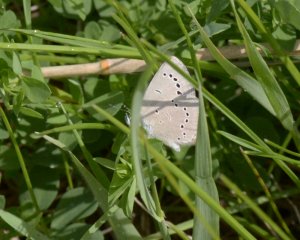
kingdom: Animalia
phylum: Arthropoda
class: Insecta
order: Lepidoptera
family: Lycaenidae
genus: Glaucopsyche
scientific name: Glaucopsyche lygdamus
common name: Silvery Blue
